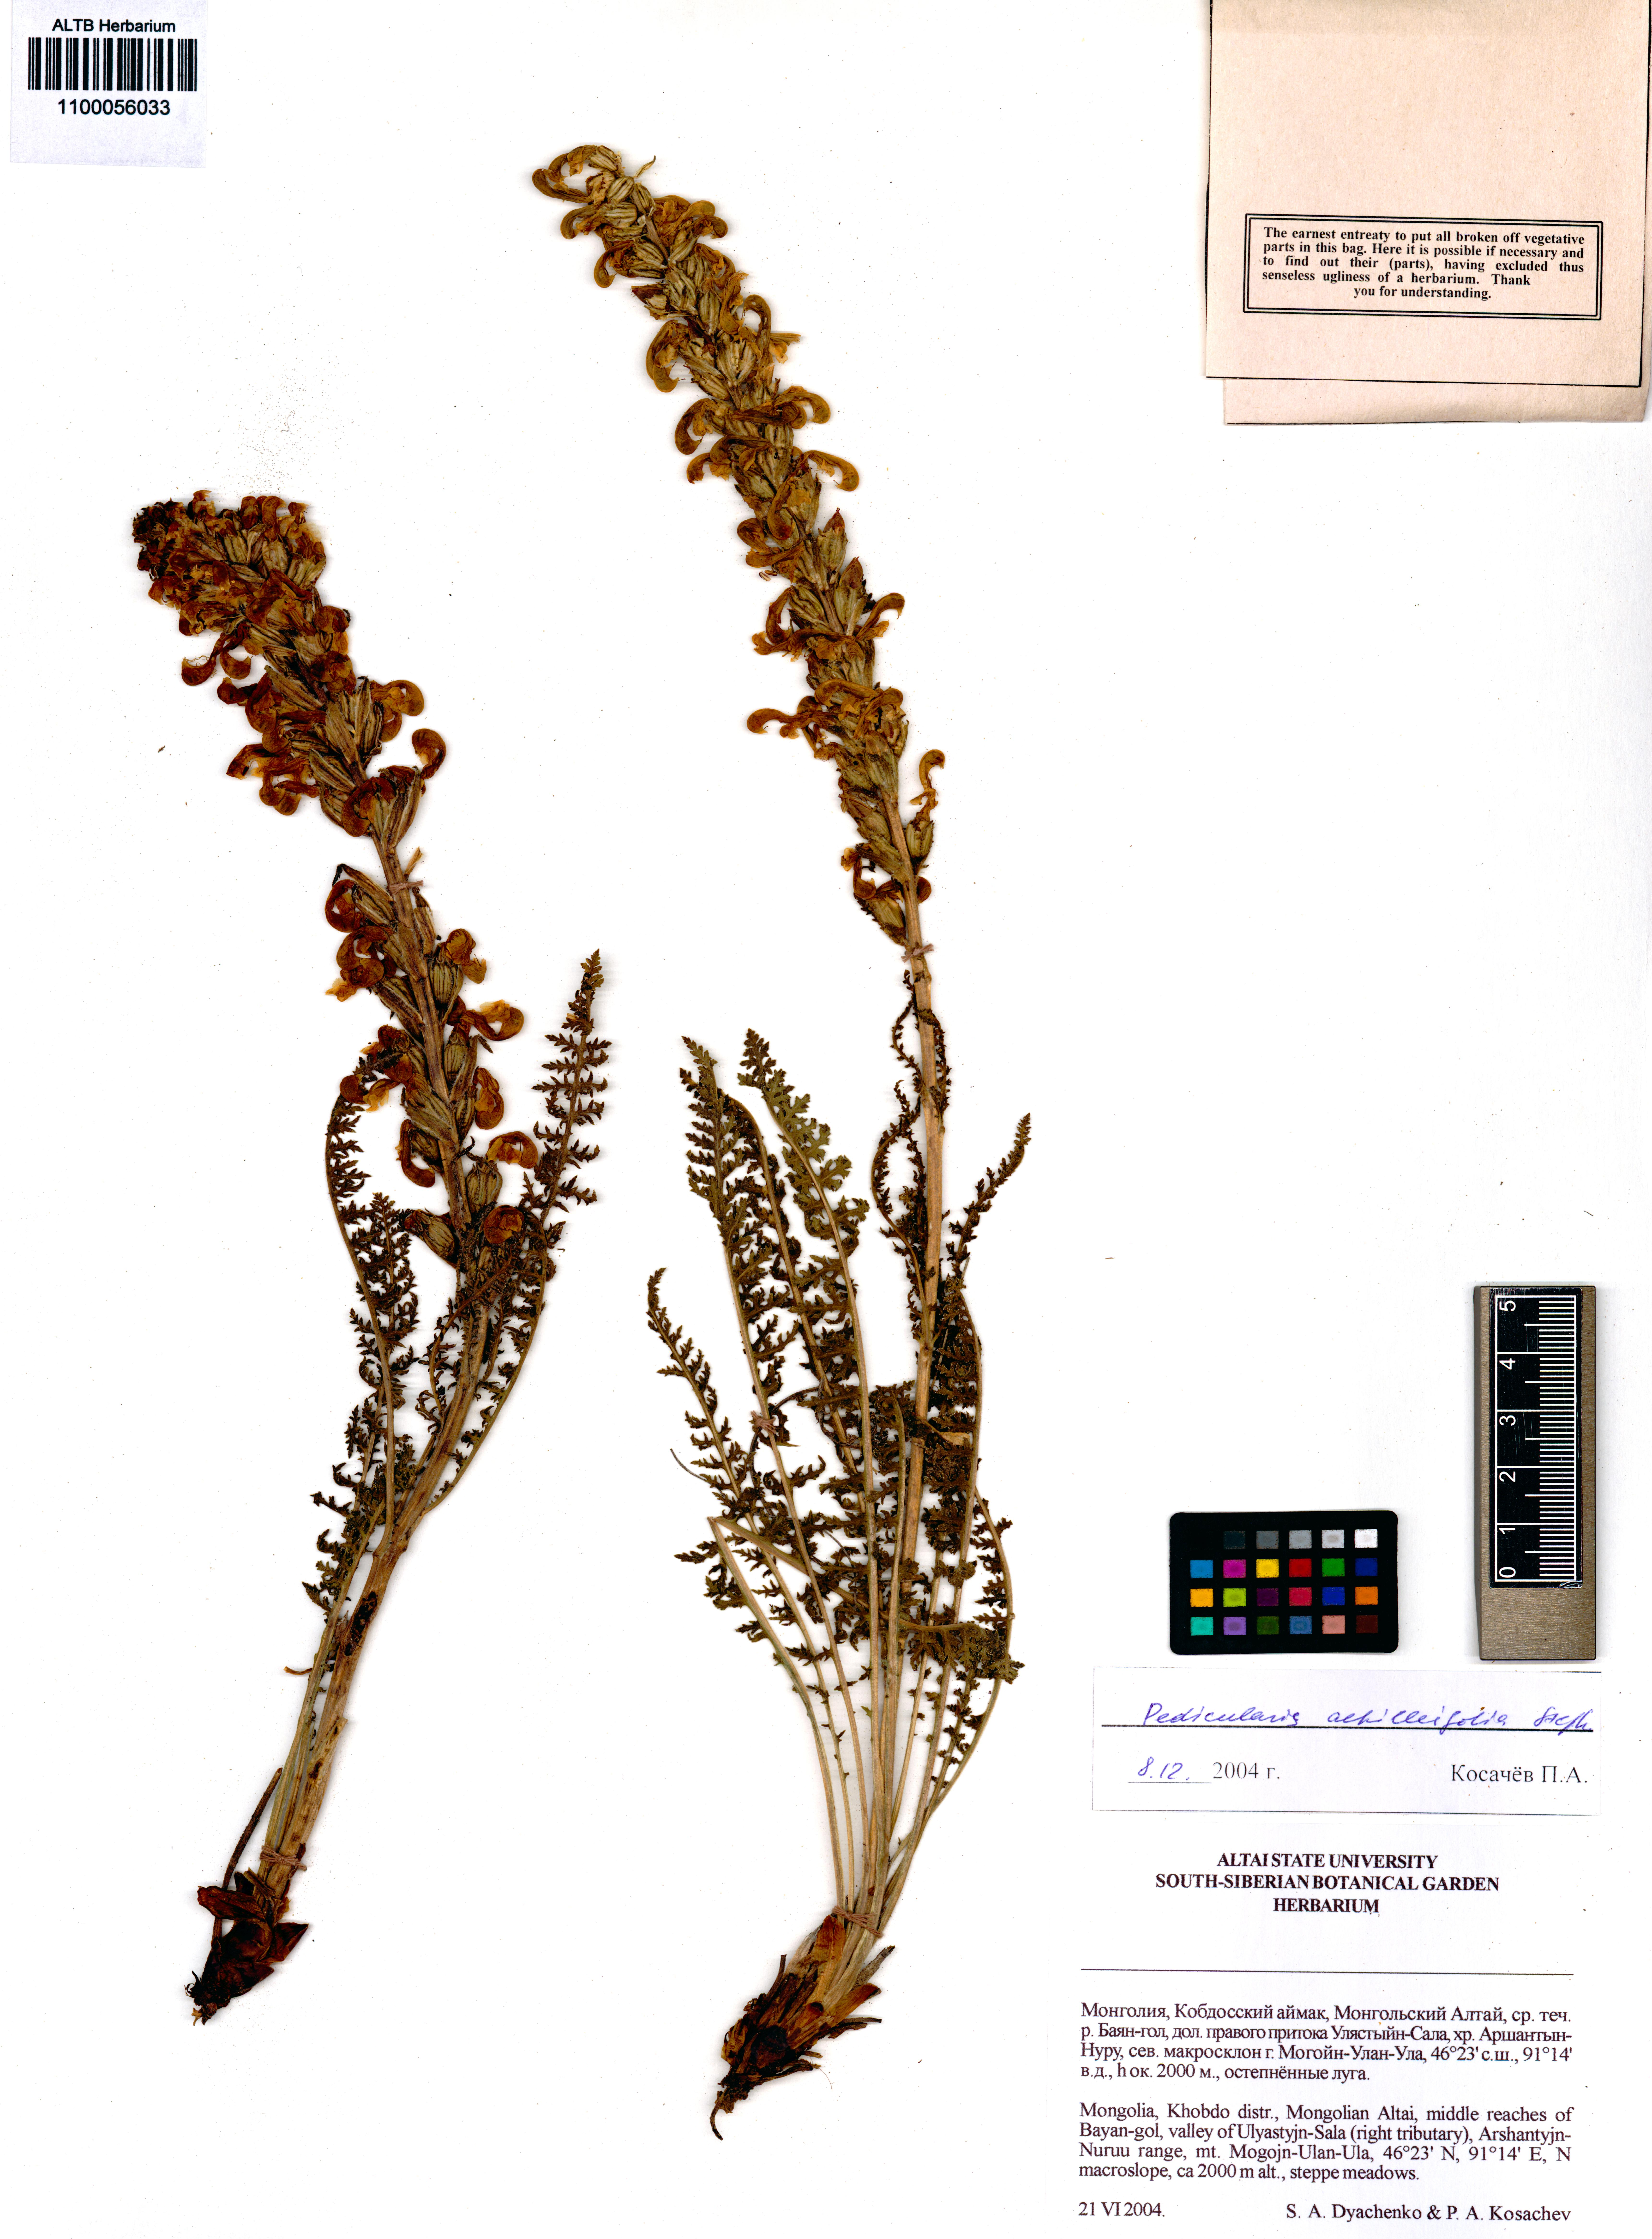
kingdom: Plantae
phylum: Tracheophyta
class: Magnoliopsida
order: Lamiales
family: Orobanchaceae
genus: Pedicularis
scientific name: Pedicularis achilleifolia
